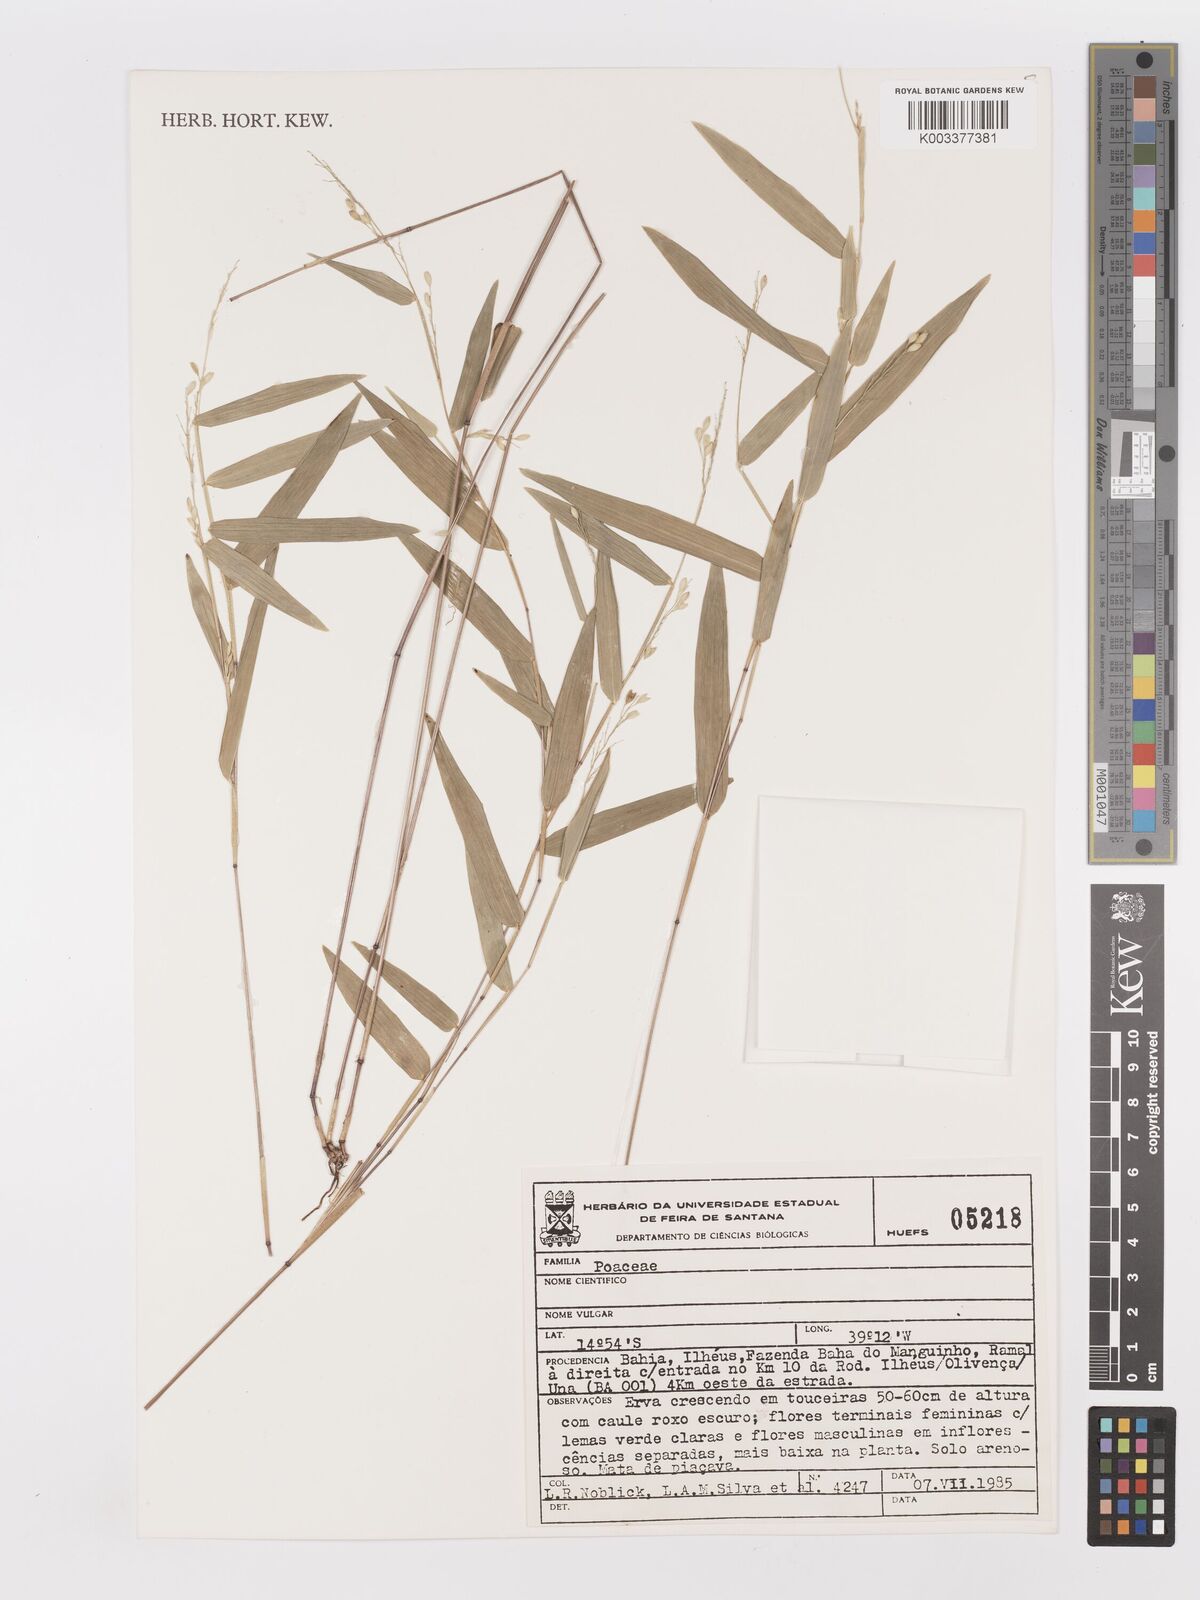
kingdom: Plantae
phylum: Tracheophyta
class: Liliopsida
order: Poales
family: Poaceae
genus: Panicum
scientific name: Panicum
